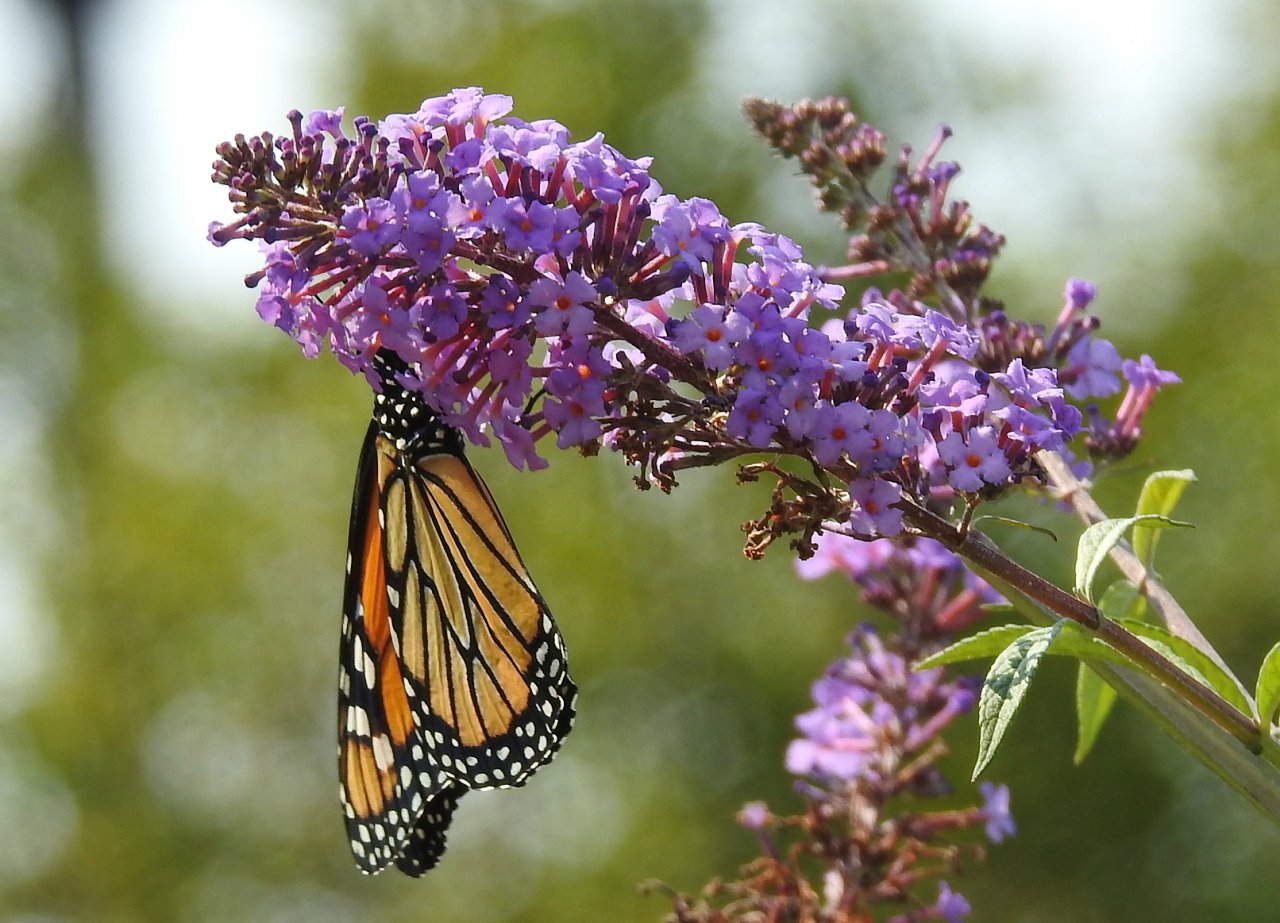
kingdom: Animalia
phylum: Arthropoda
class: Insecta
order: Lepidoptera
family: Nymphalidae
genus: Danaus
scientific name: Danaus plexippus
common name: Monarch
